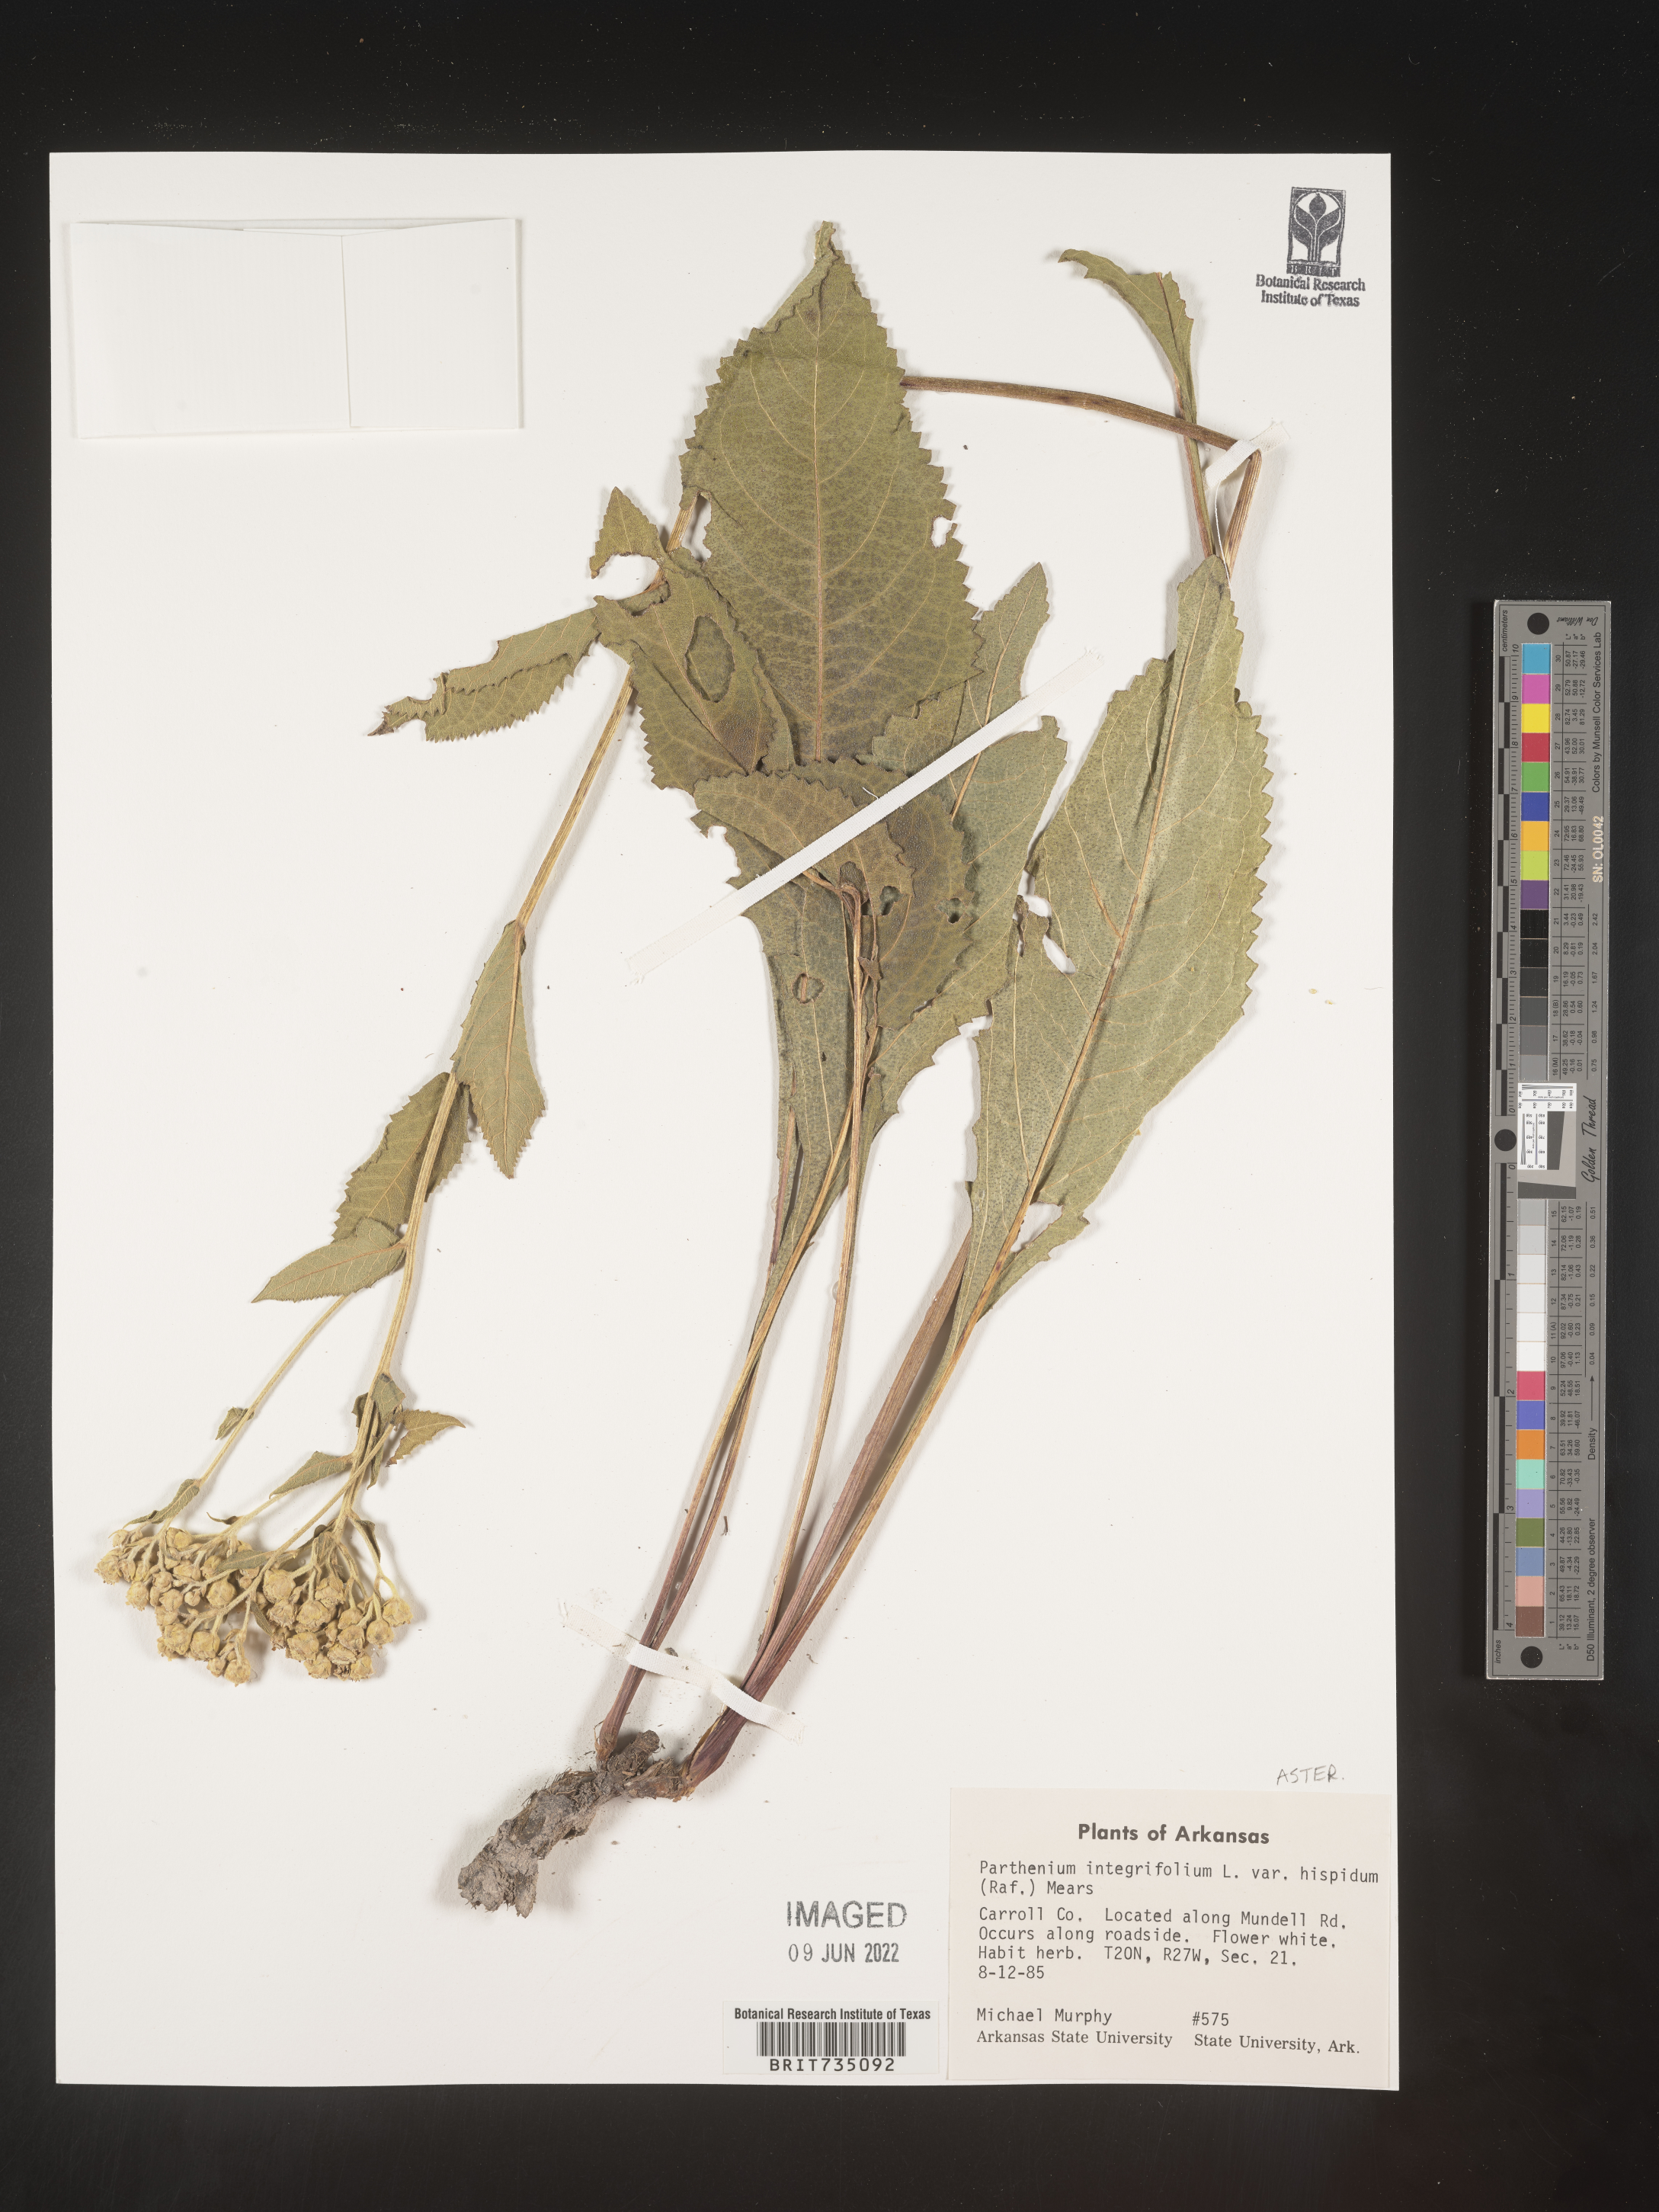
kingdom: Plantae
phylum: Tracheophyta
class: Magnoliopsida
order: Asterales
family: Asteraceae
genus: Parthenium
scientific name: Parthenium integrifolium
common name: American feverfew
